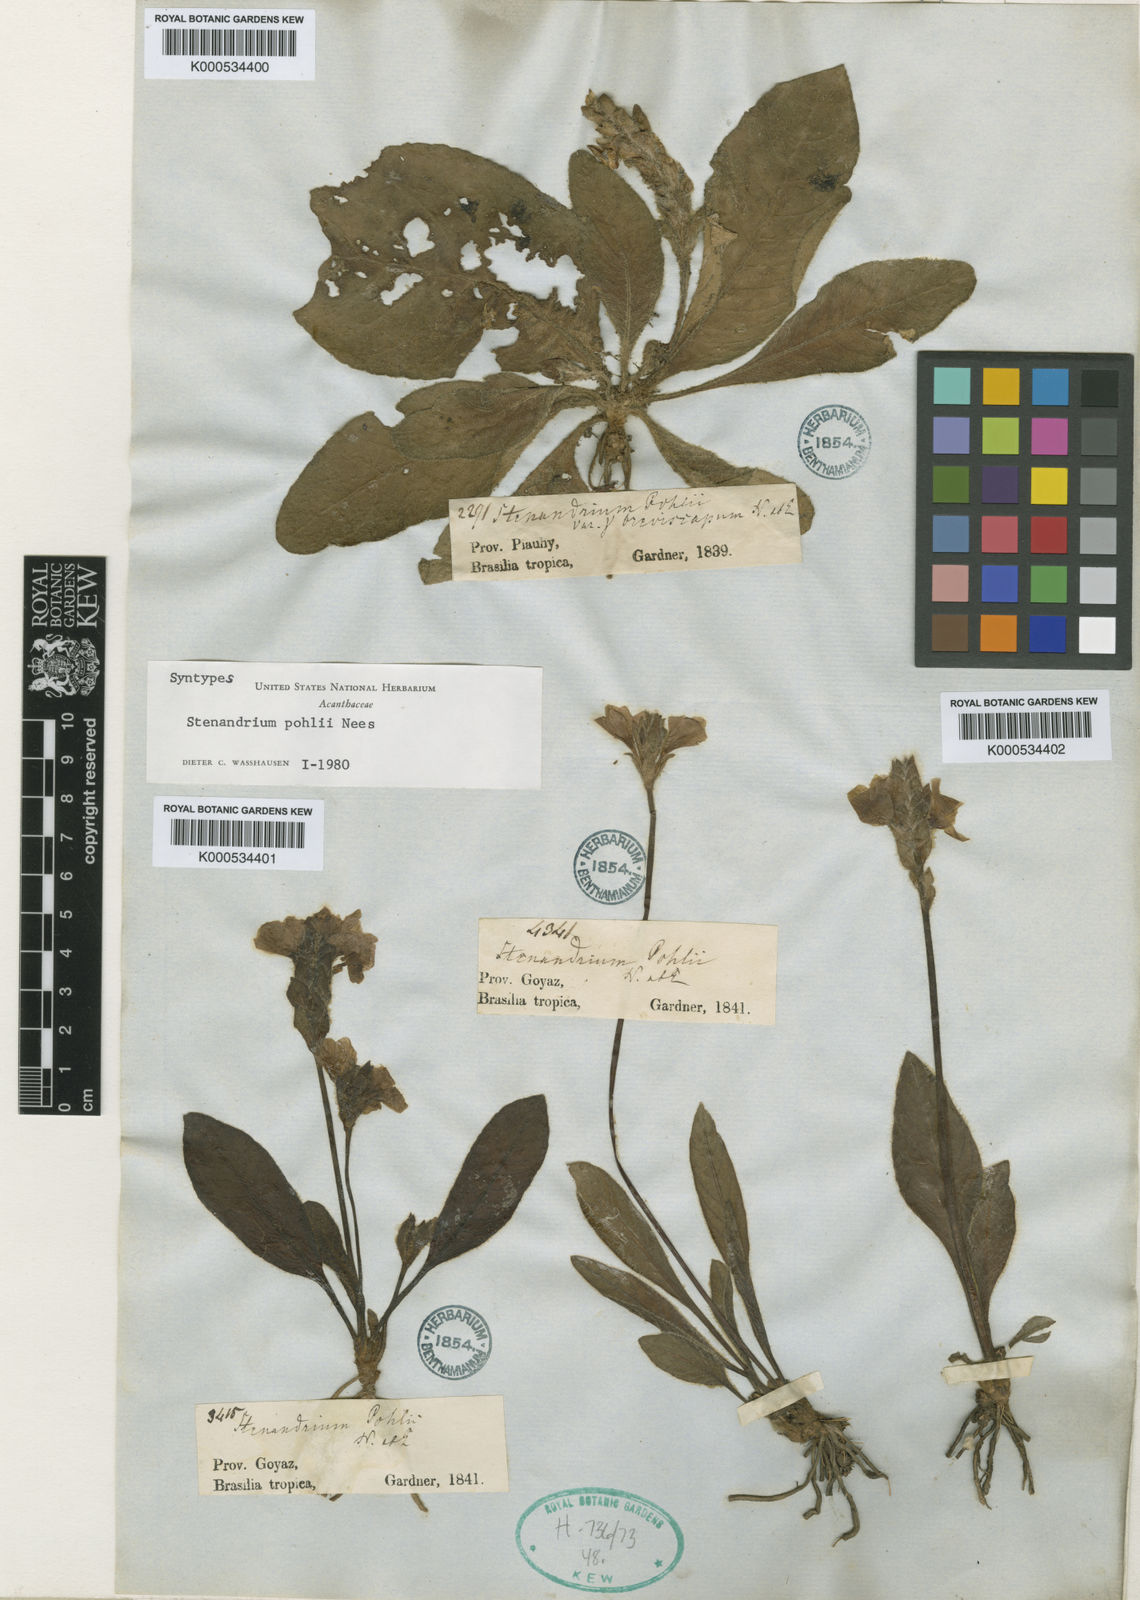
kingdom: Plantae
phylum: Tracheophyta
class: Magnoliopsida
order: Lamiales
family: Acanthaceae
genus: Stenandrium
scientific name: Stenandrium pohlii
